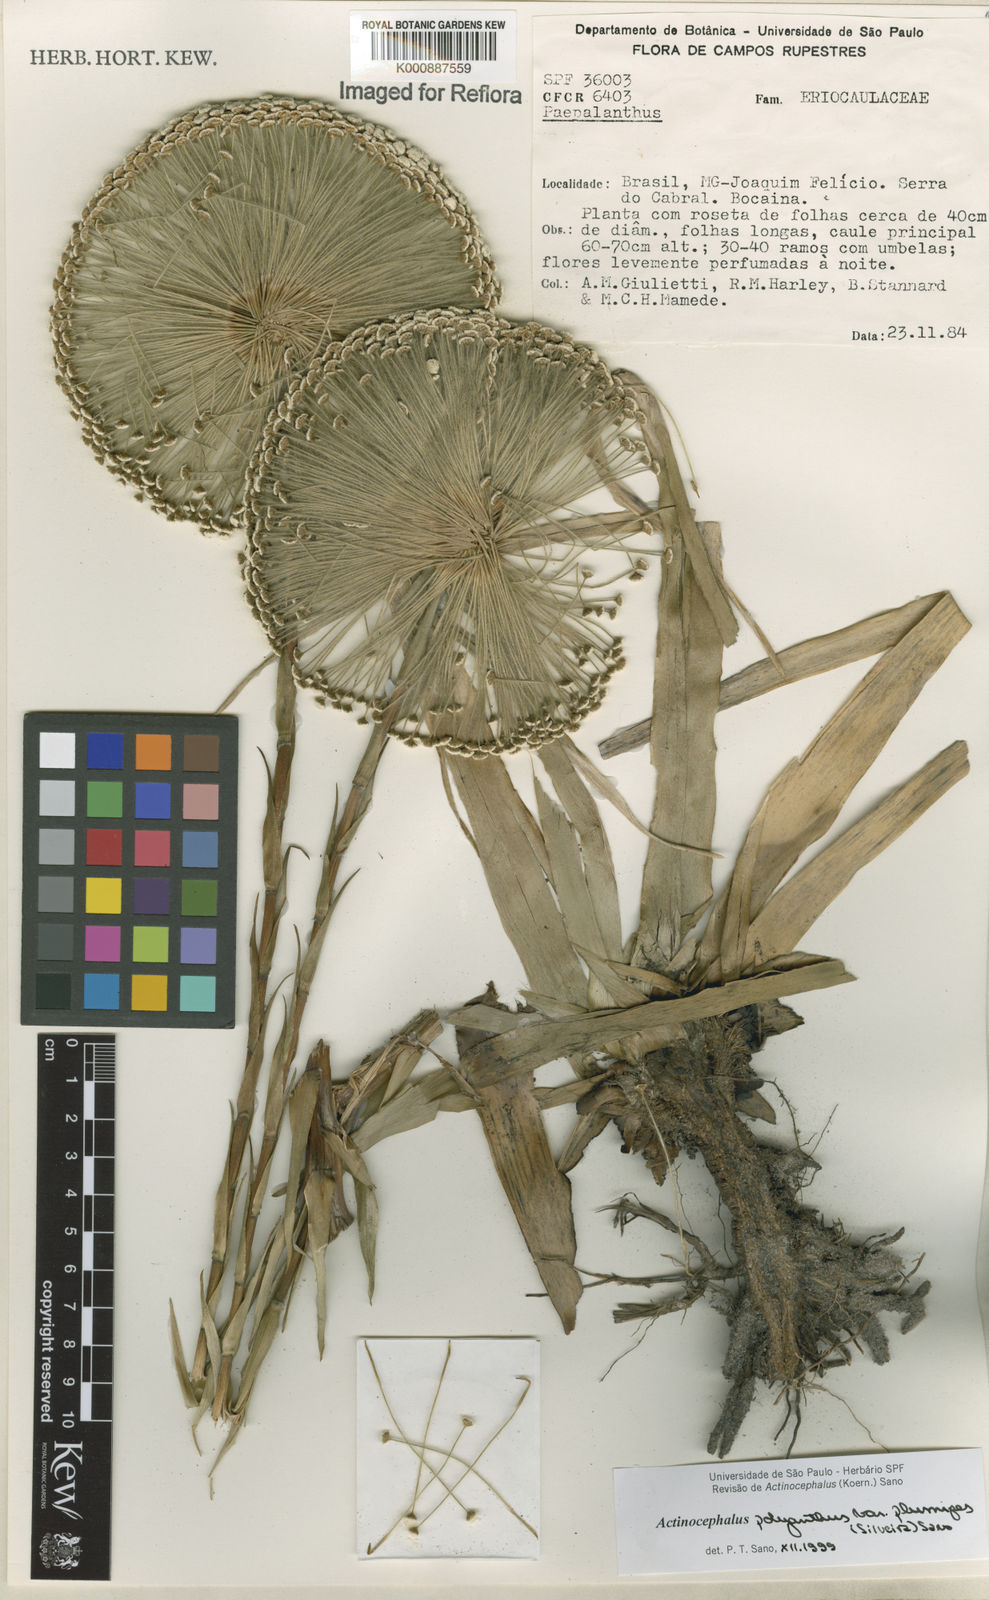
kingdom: Plantae
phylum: Tracheophyta
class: Liliopsida
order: Poales
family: Eriocaulaceae
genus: Paepalanthus
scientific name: Paepalanthus polyanthus
